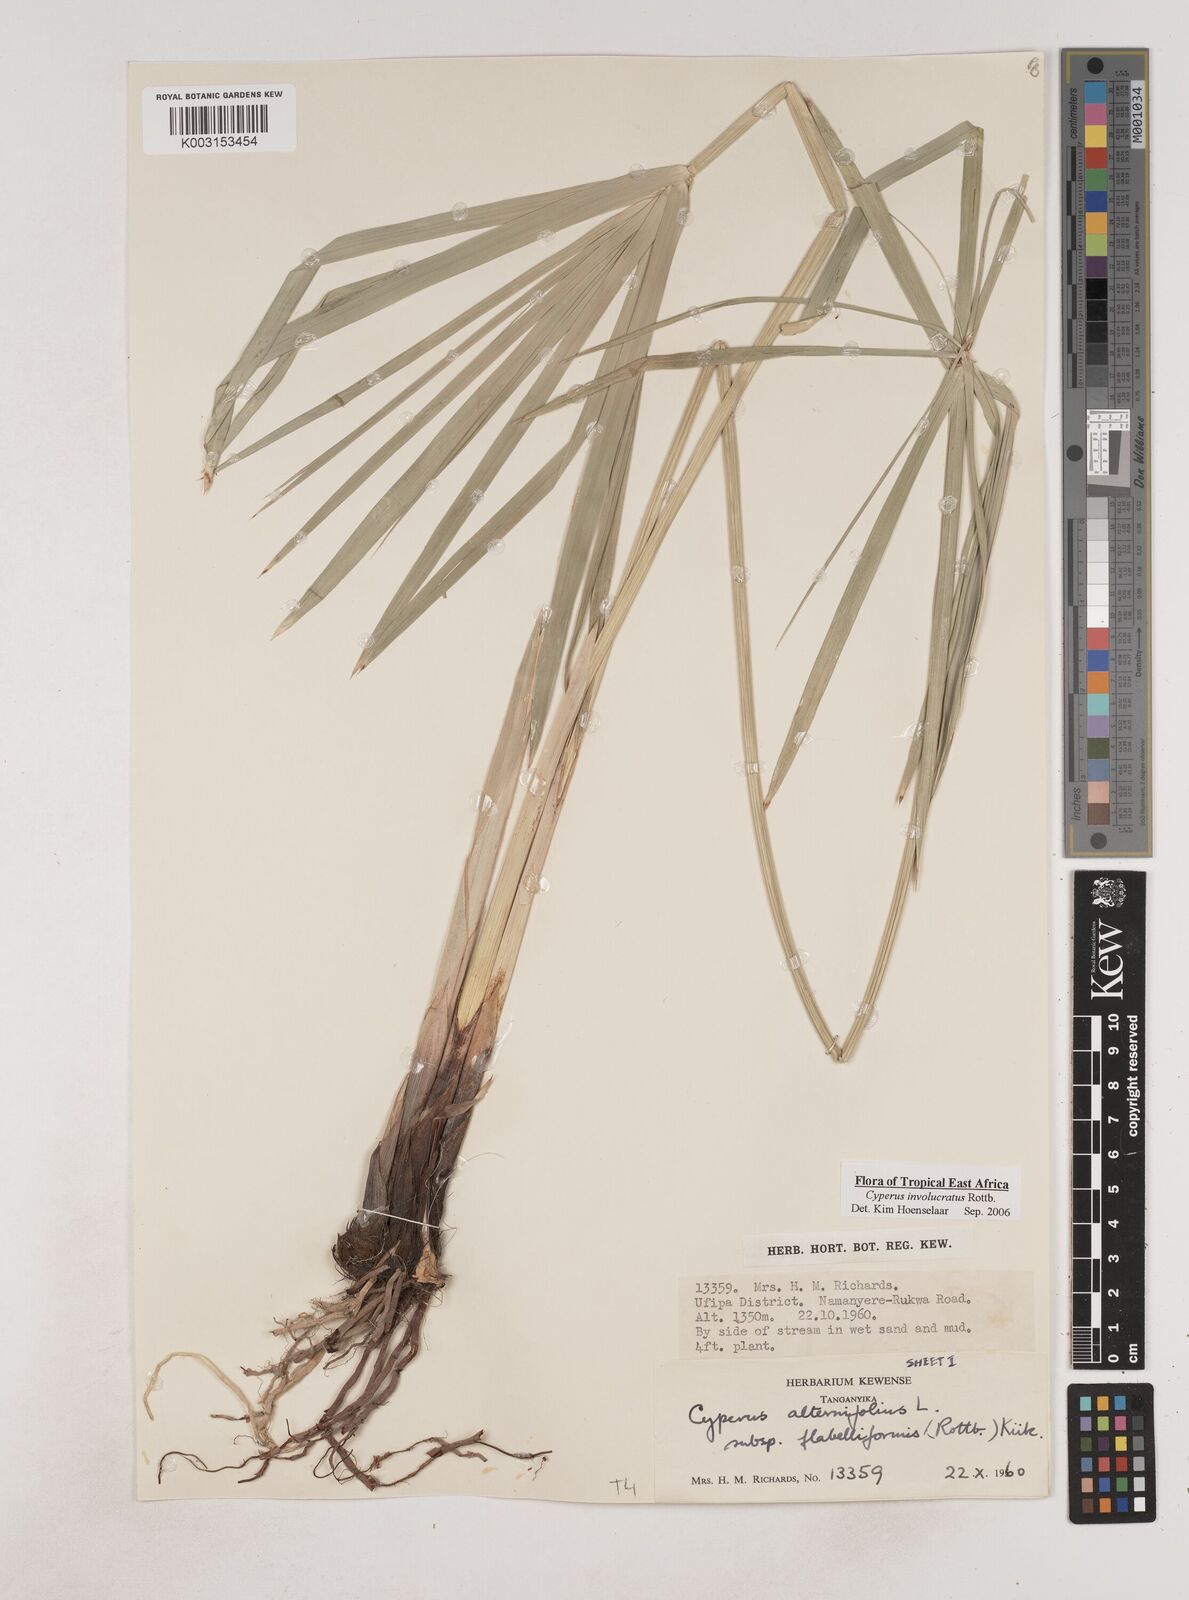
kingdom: Plantae
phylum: Tracheophyta
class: Liliopsida
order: Poales
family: Cyperaceae
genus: Cyperus
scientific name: Cyperus alternifolius
